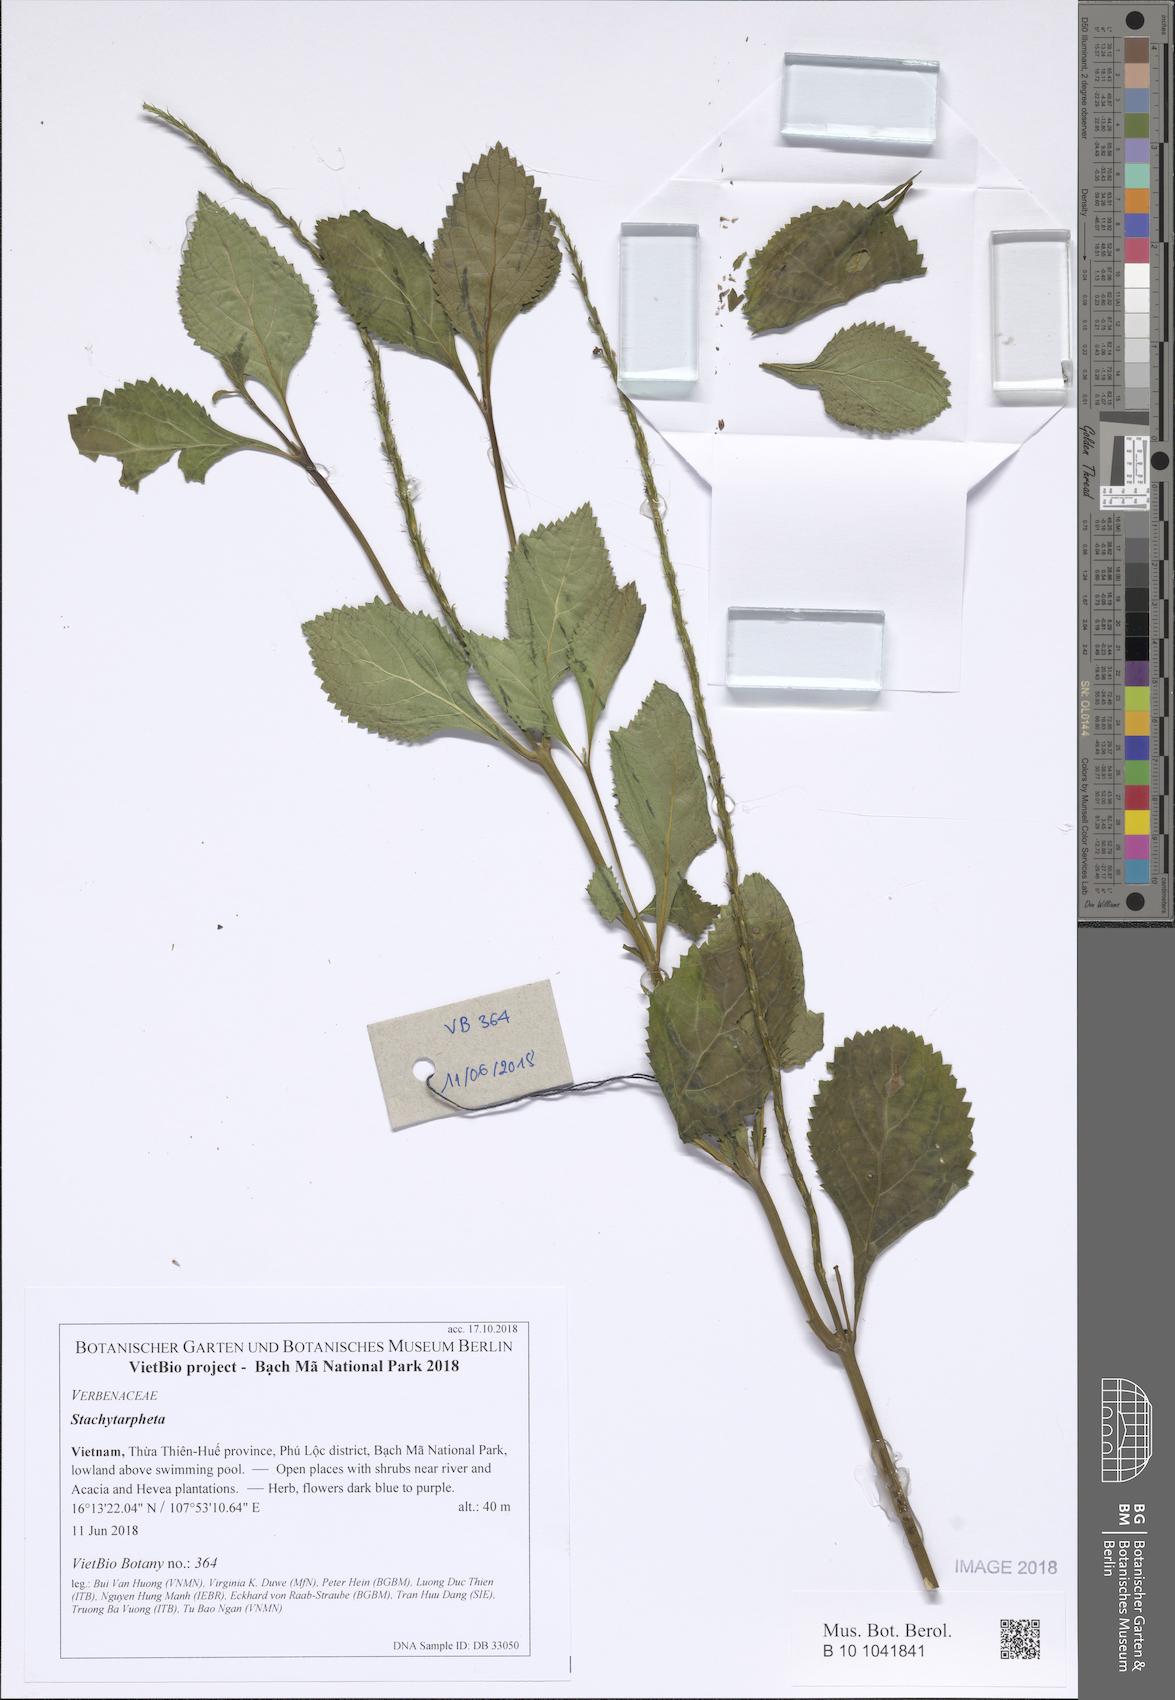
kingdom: Plantae
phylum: Tracheophyta
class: Magnoliopsida
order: Lamiales
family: Verbenaceae
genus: Stachytarpheta
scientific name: Stachytarpheta
